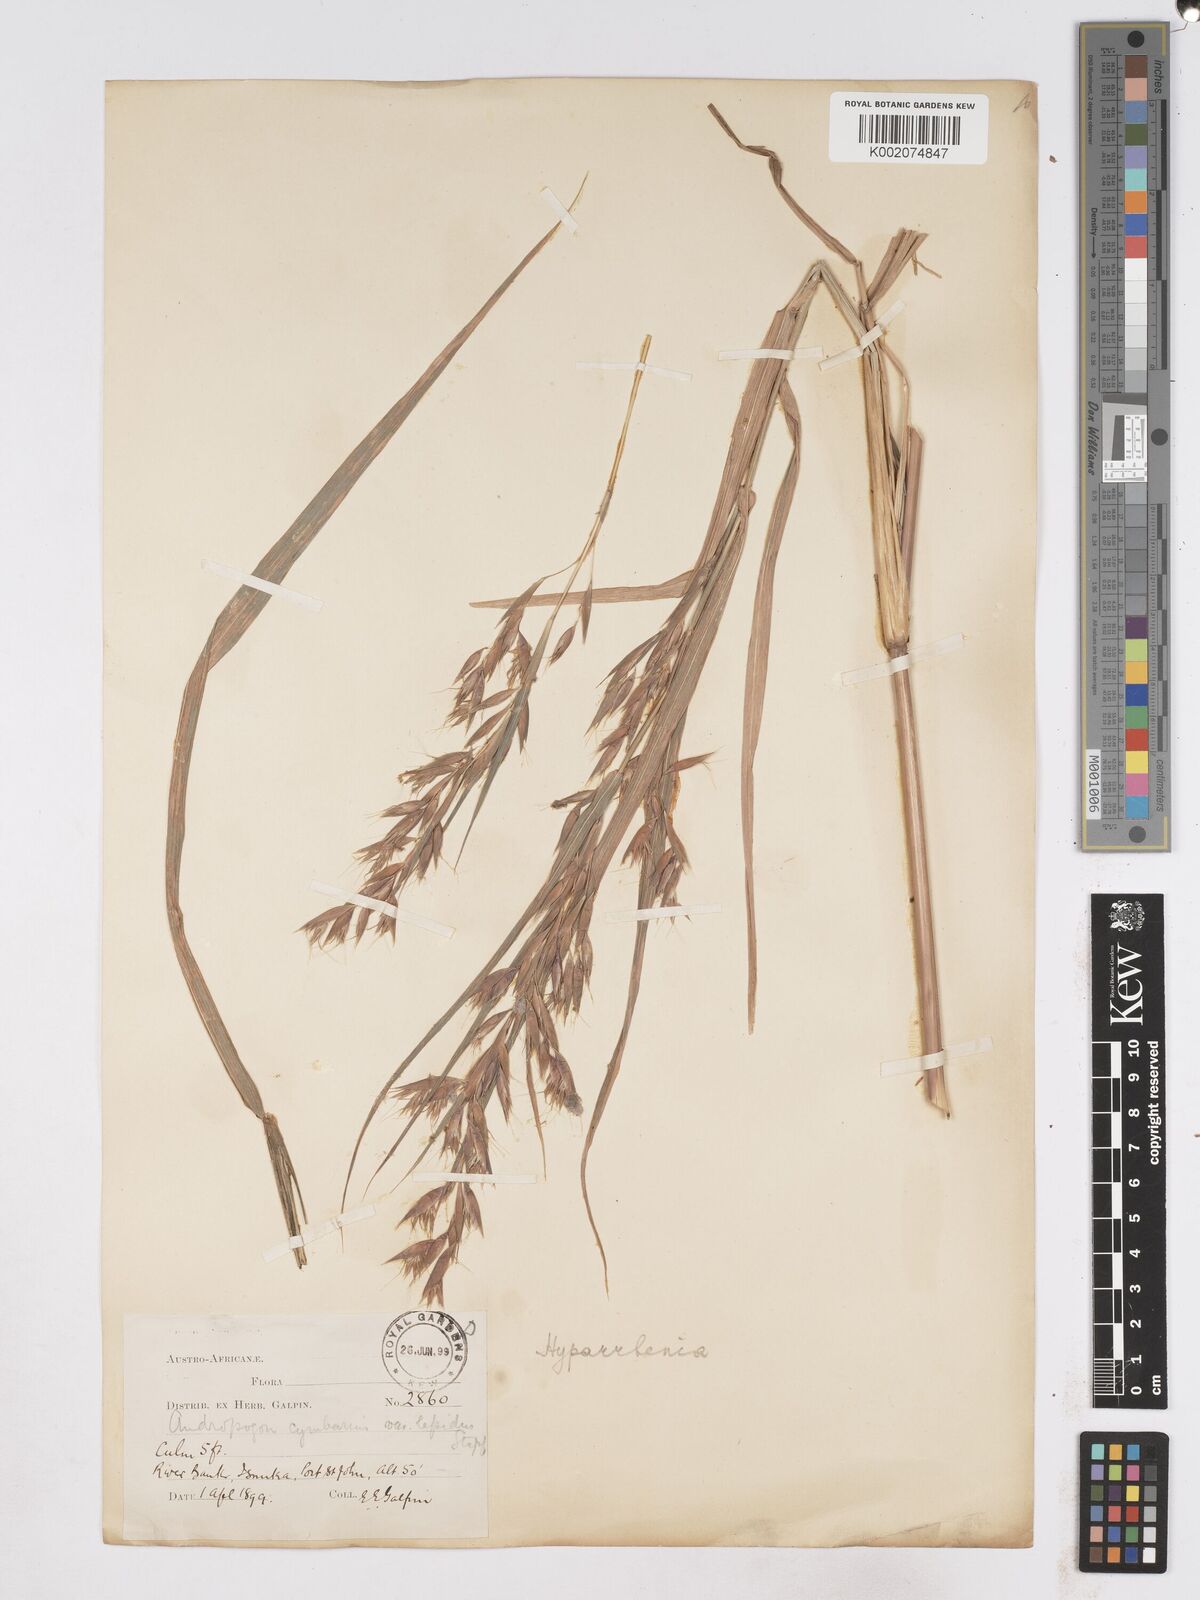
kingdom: Plantae
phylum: Tracheophyta
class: Liliopsida
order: Poales
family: Poaceae
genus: Hyparrhenia
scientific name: Hyparrhenia cymbaria
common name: Boat thatching grass
